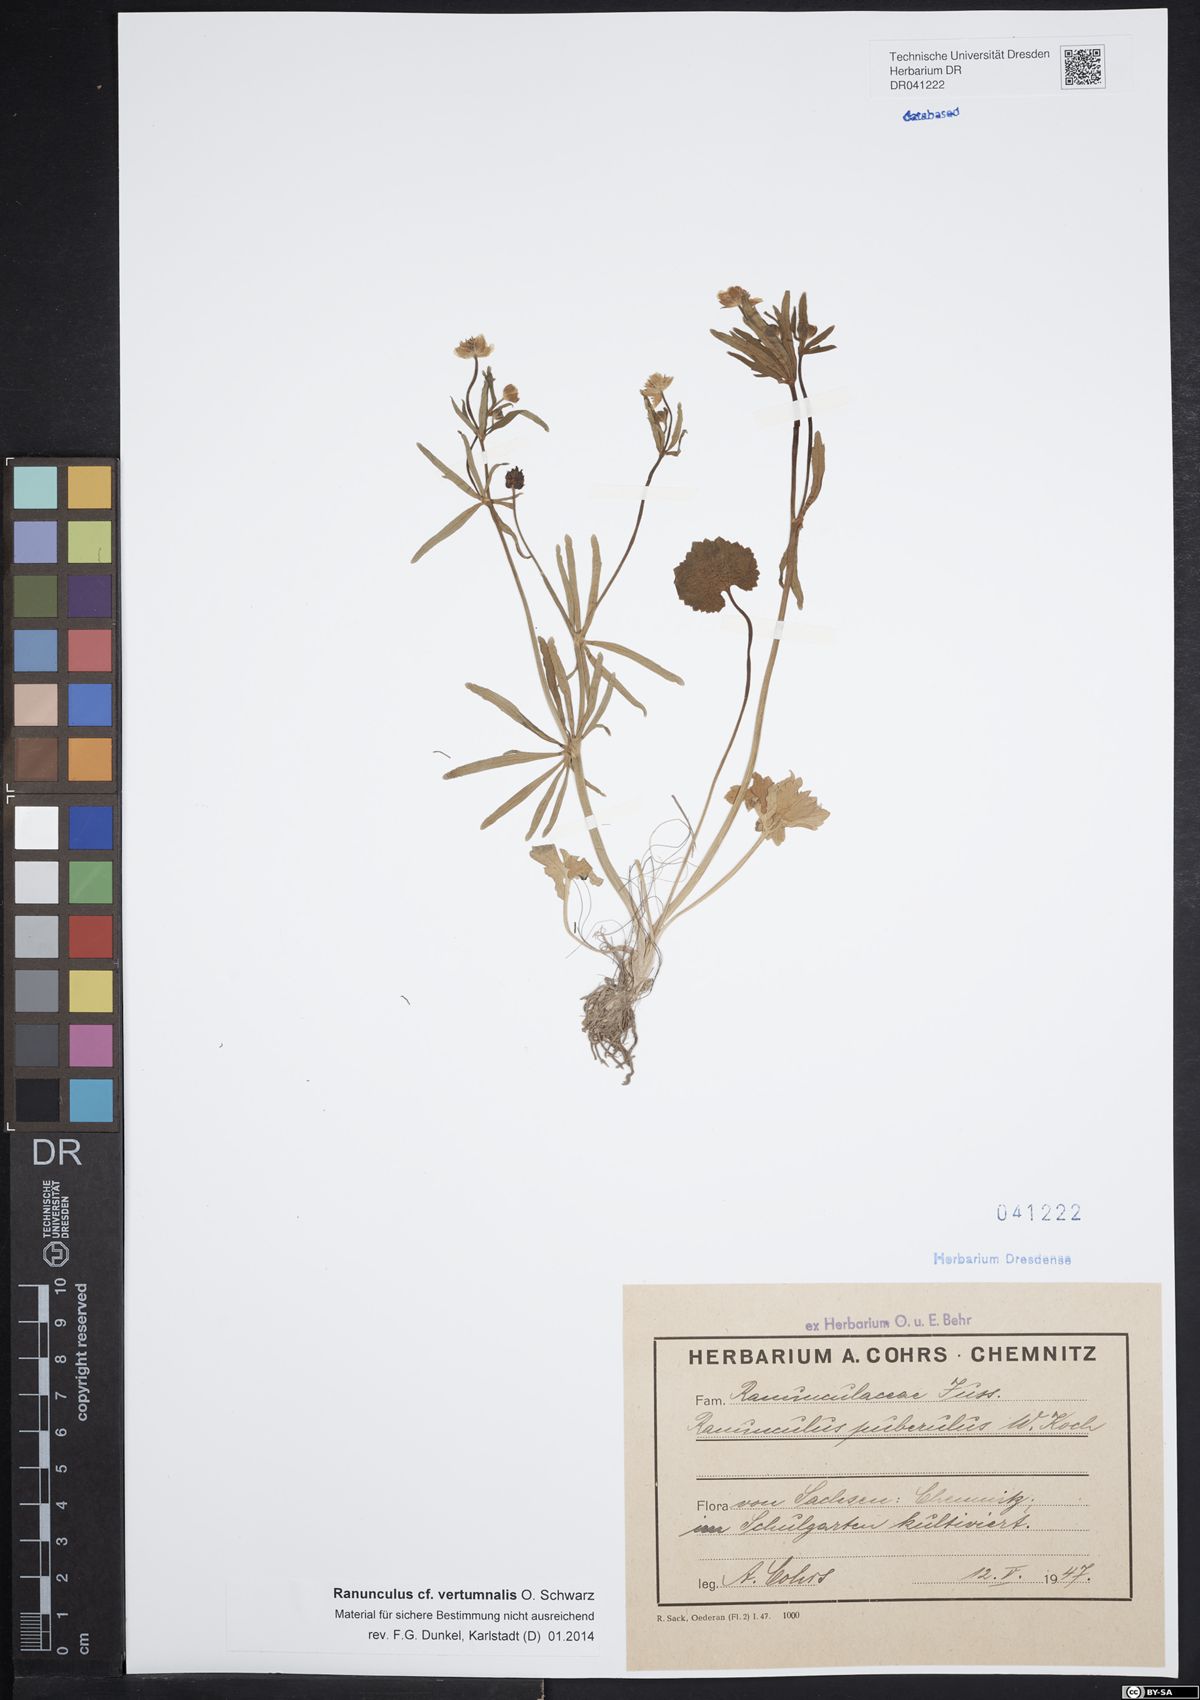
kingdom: Plantae
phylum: Tracheophyta
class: Magnoliopsida
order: Ranunculales
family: Ranunculaceae
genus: Ranunculus
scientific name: Ranunculus vertumnalis
